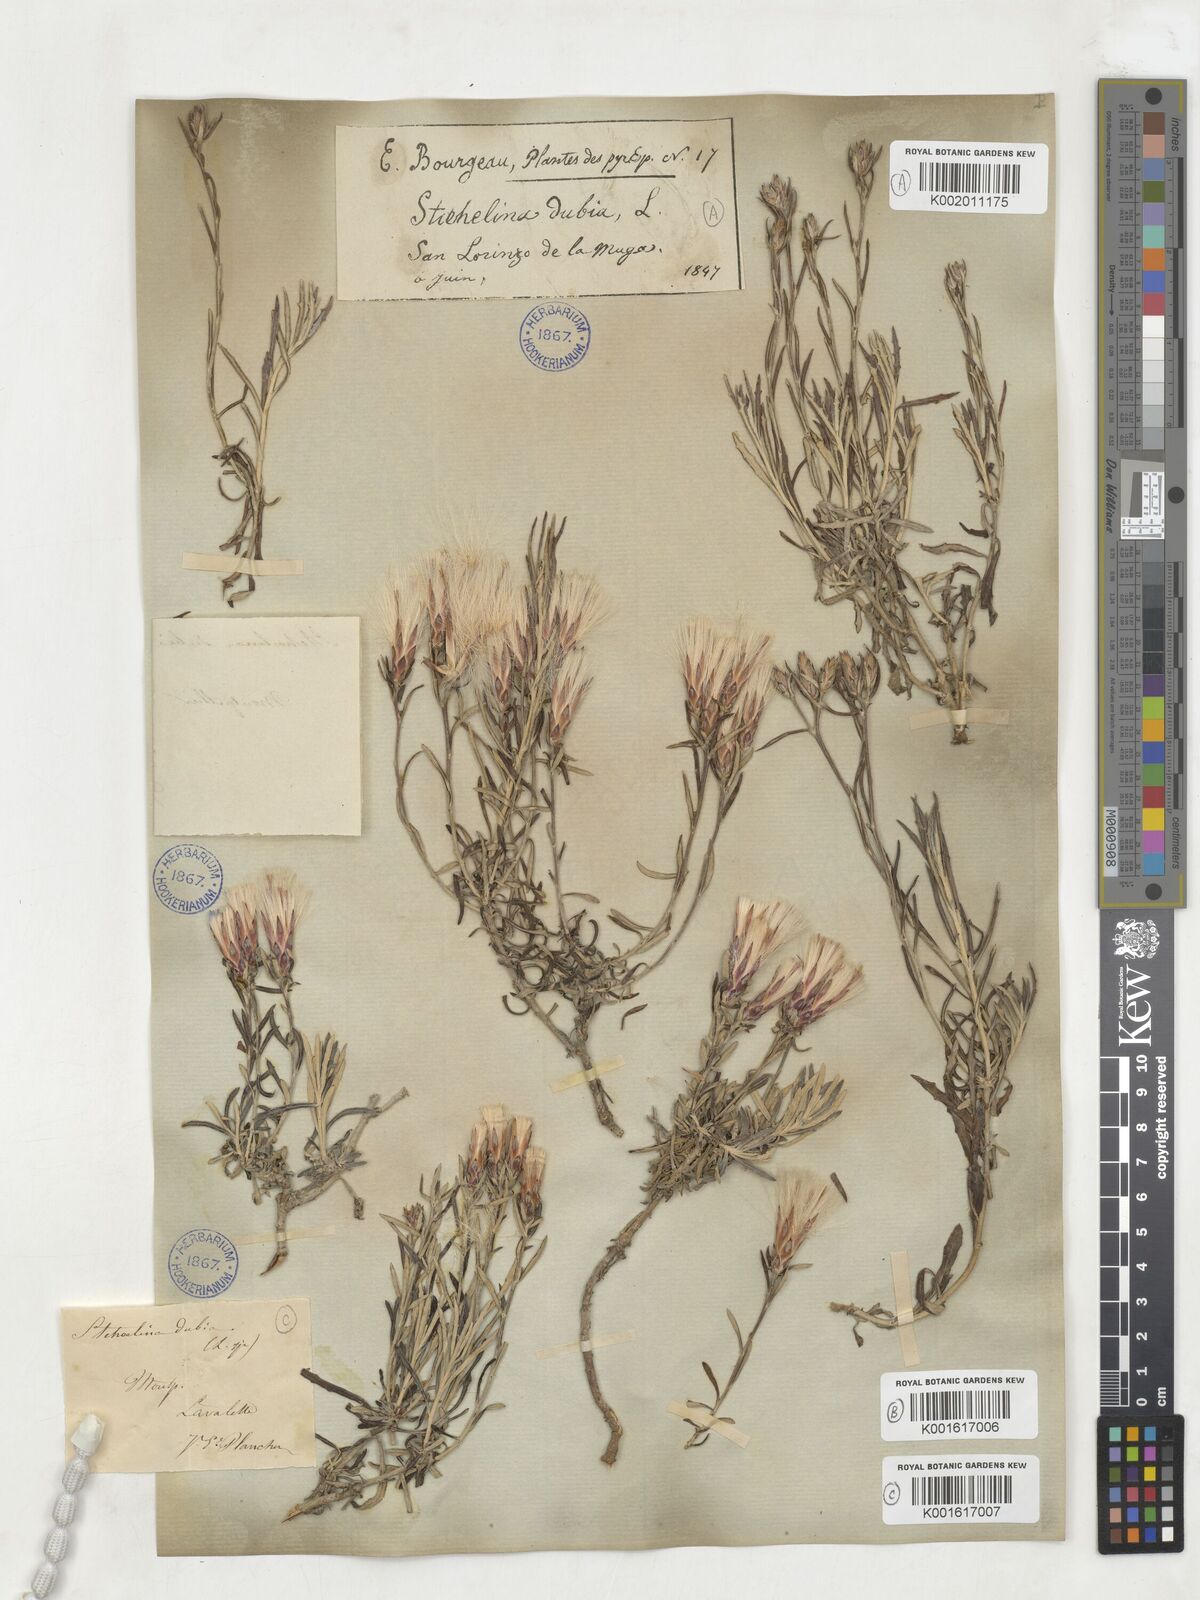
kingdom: Plantae
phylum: Tracheophyta
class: Magnoliopsida
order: Asterales
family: Asteraceae
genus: Staehelina
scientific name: Staehelina dubia
